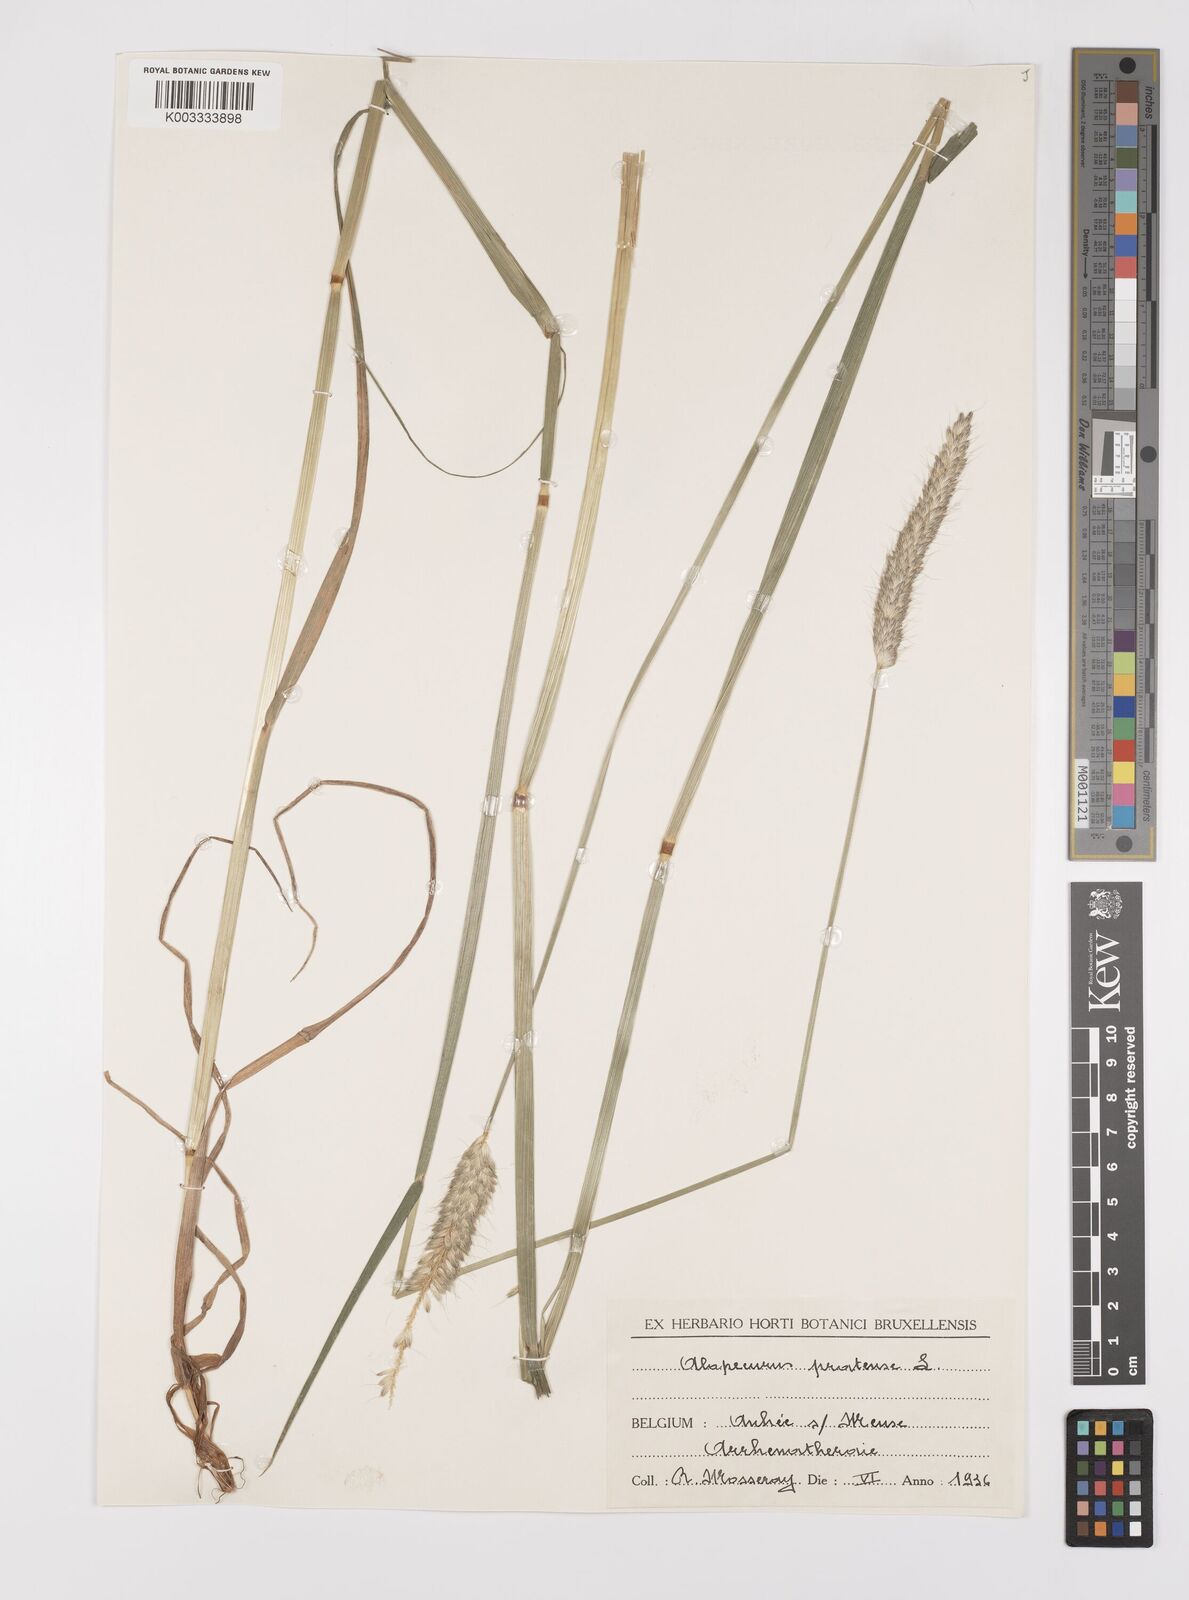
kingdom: Plantae
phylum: Tracheophyta
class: Liliopsida
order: Poales
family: Poaceae
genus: Alopecurus
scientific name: Alopecurus pratensis
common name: Meadow foxtail
